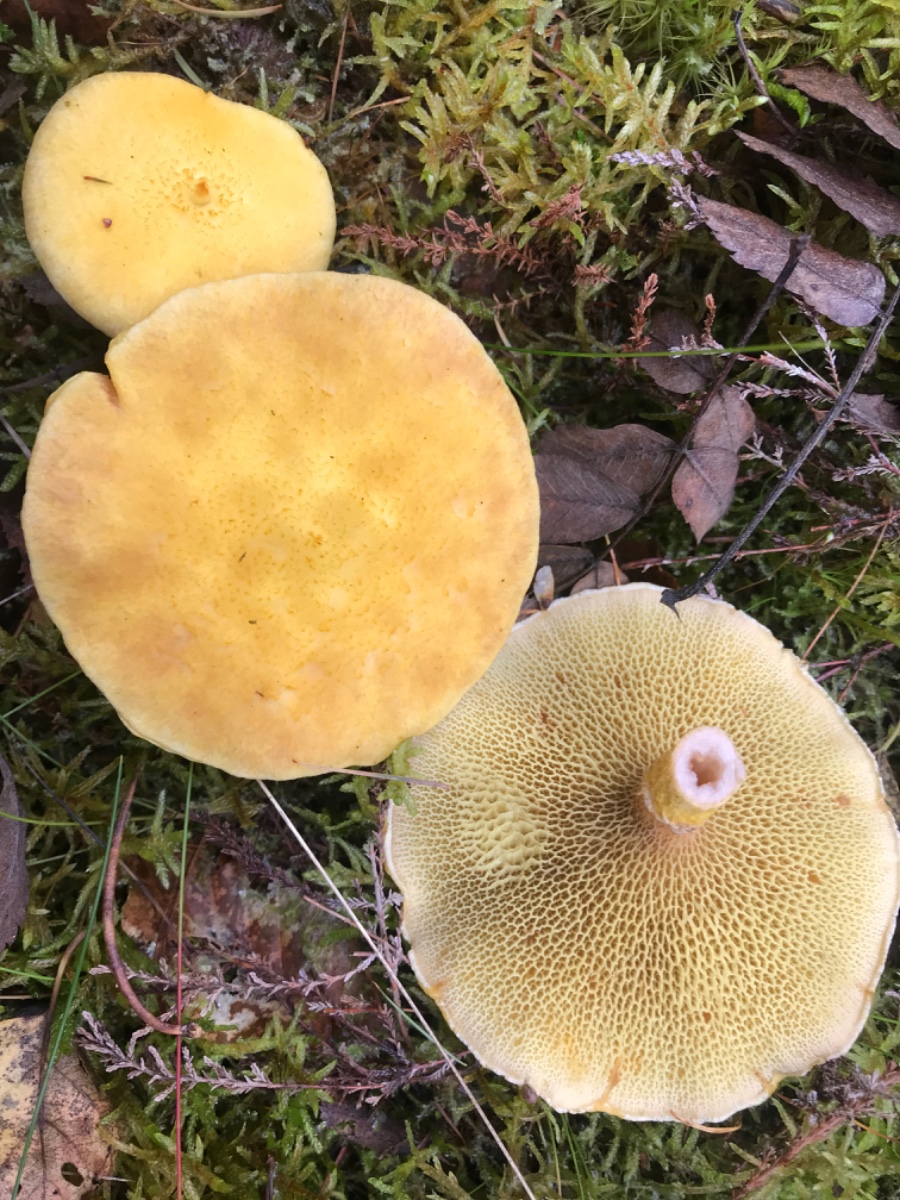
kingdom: Fungi
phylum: Basidiomycota
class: Agaricomycetes
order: Boletales
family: Suillaceae
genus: Suillus
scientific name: Suillus cavipes
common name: hulstokket slimrørhat
